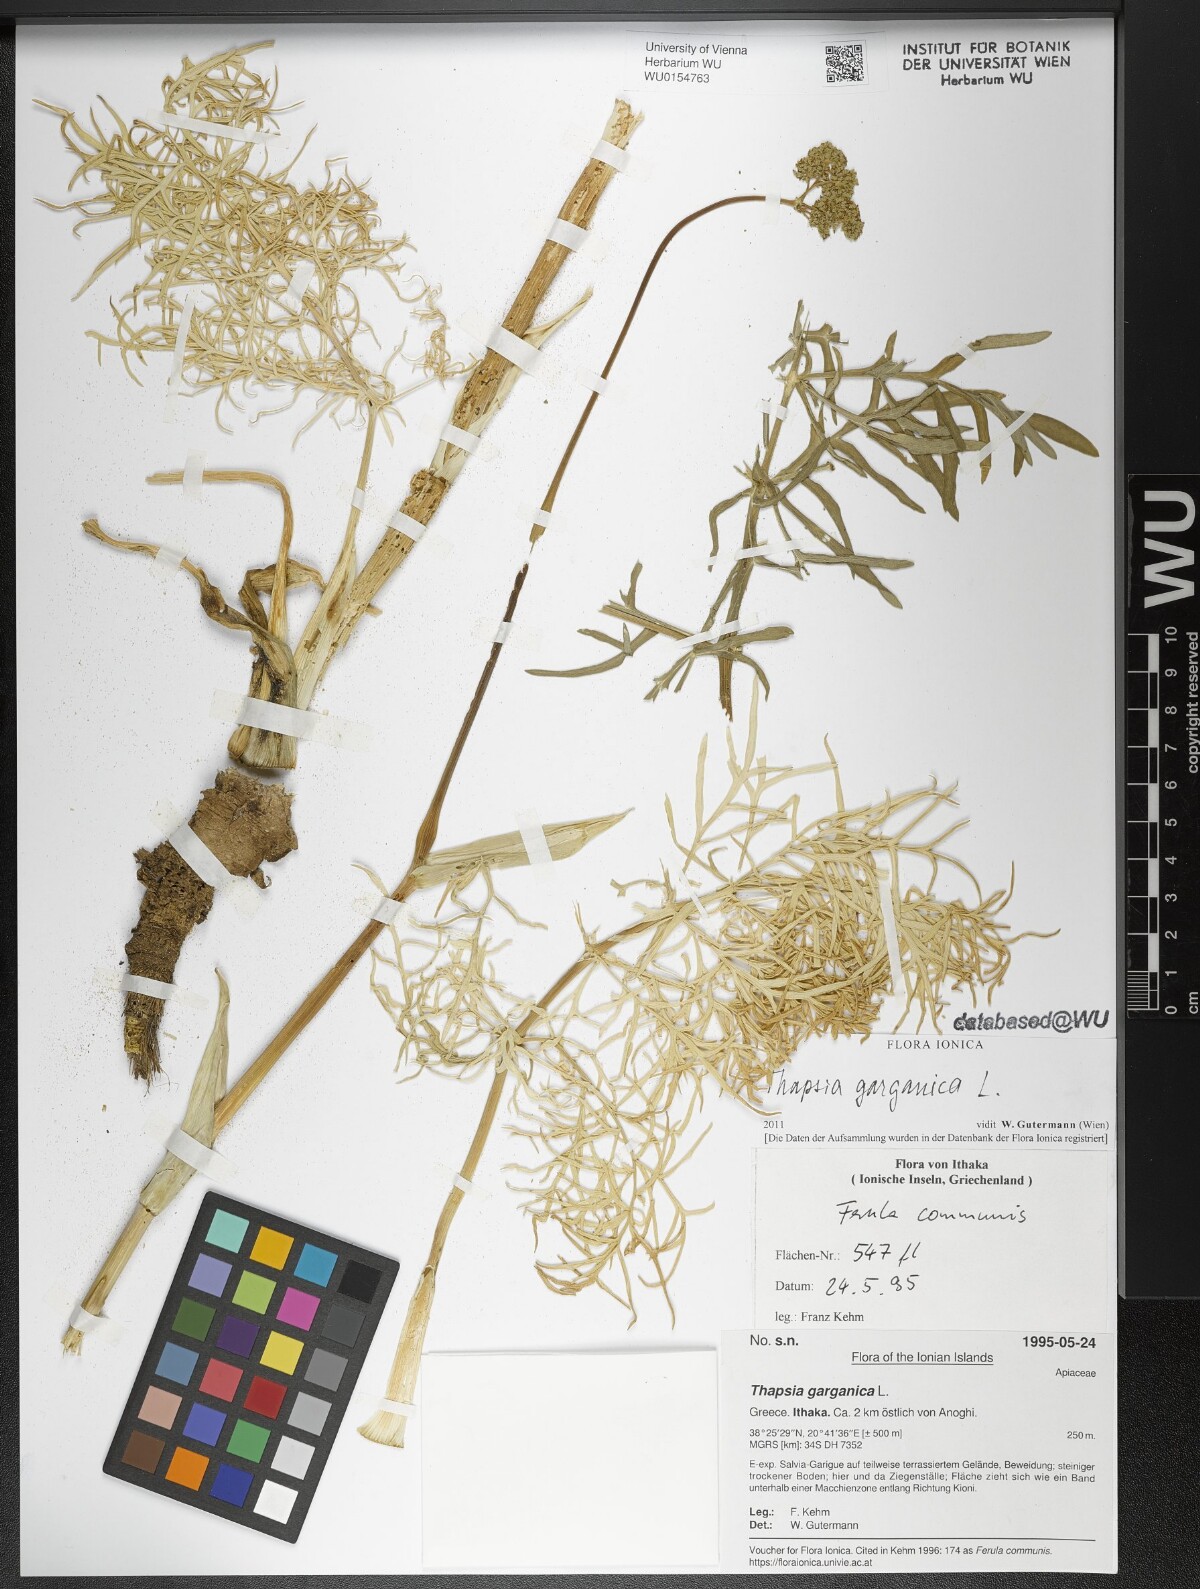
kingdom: Plantae
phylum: Tracheophyta
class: Magnoliopsida
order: Apiales
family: Apiaceae
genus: Thapsia
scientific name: Thapsia garganica
